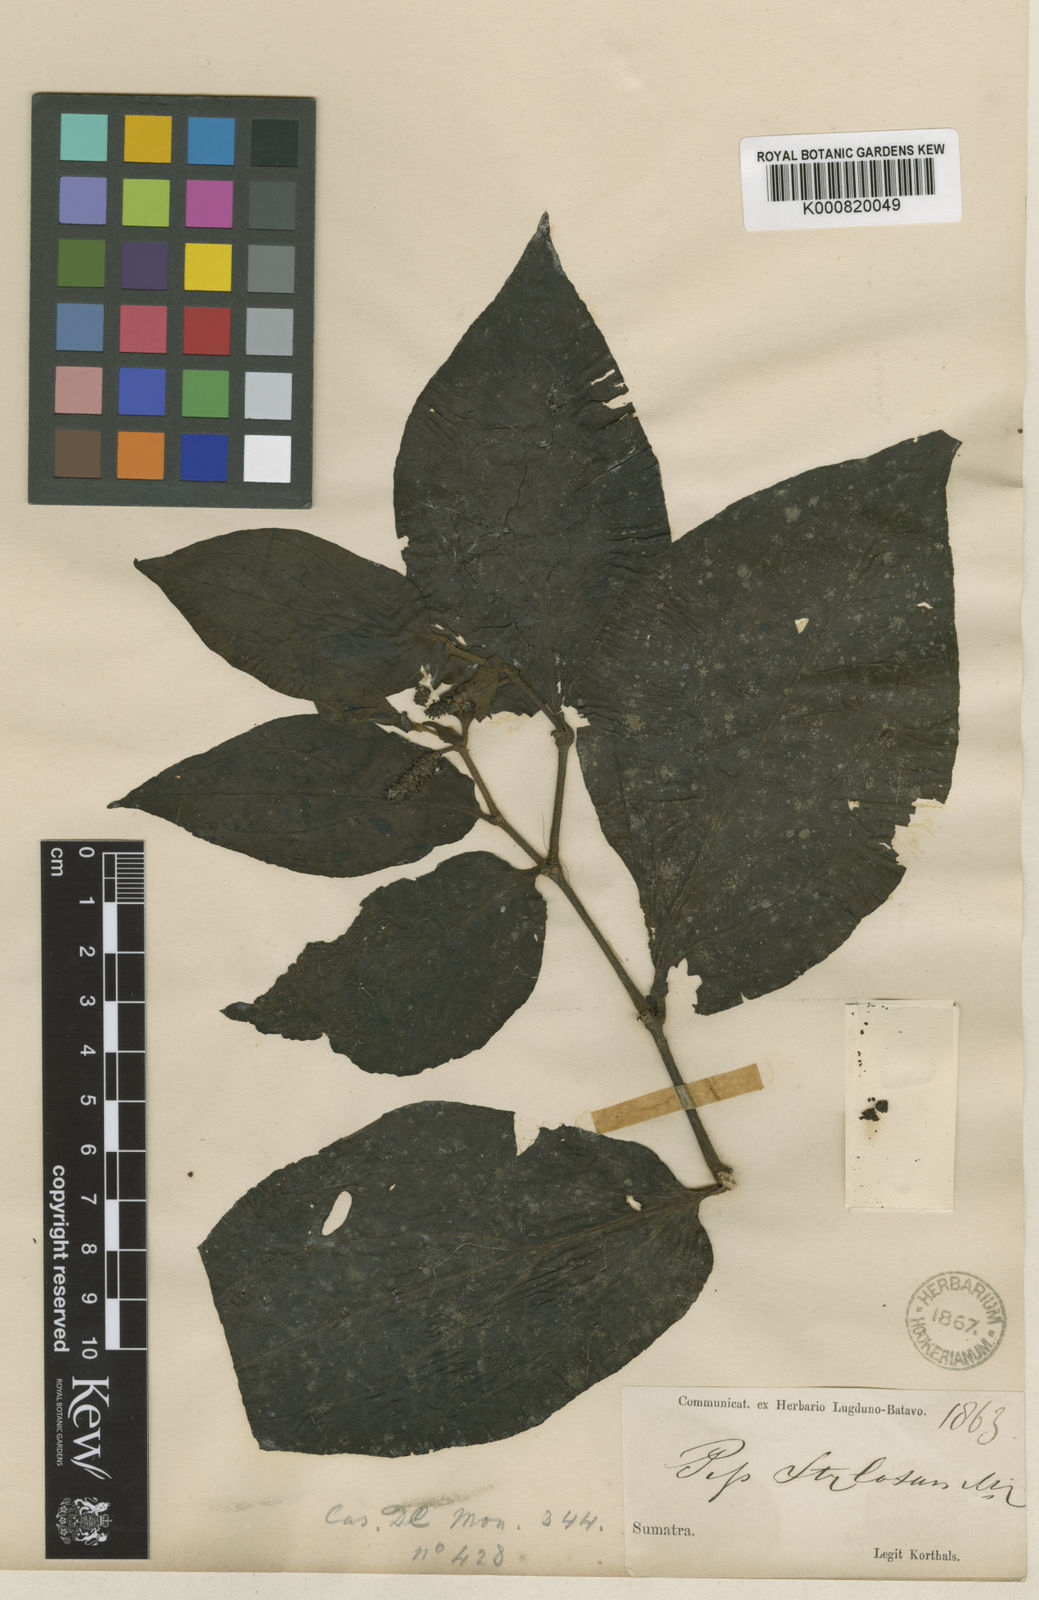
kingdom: Plantae
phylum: Tracheophyta
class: Magnoliopsida
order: Piperales
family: Piperaceae
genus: Piper
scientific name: Piper rostratum
